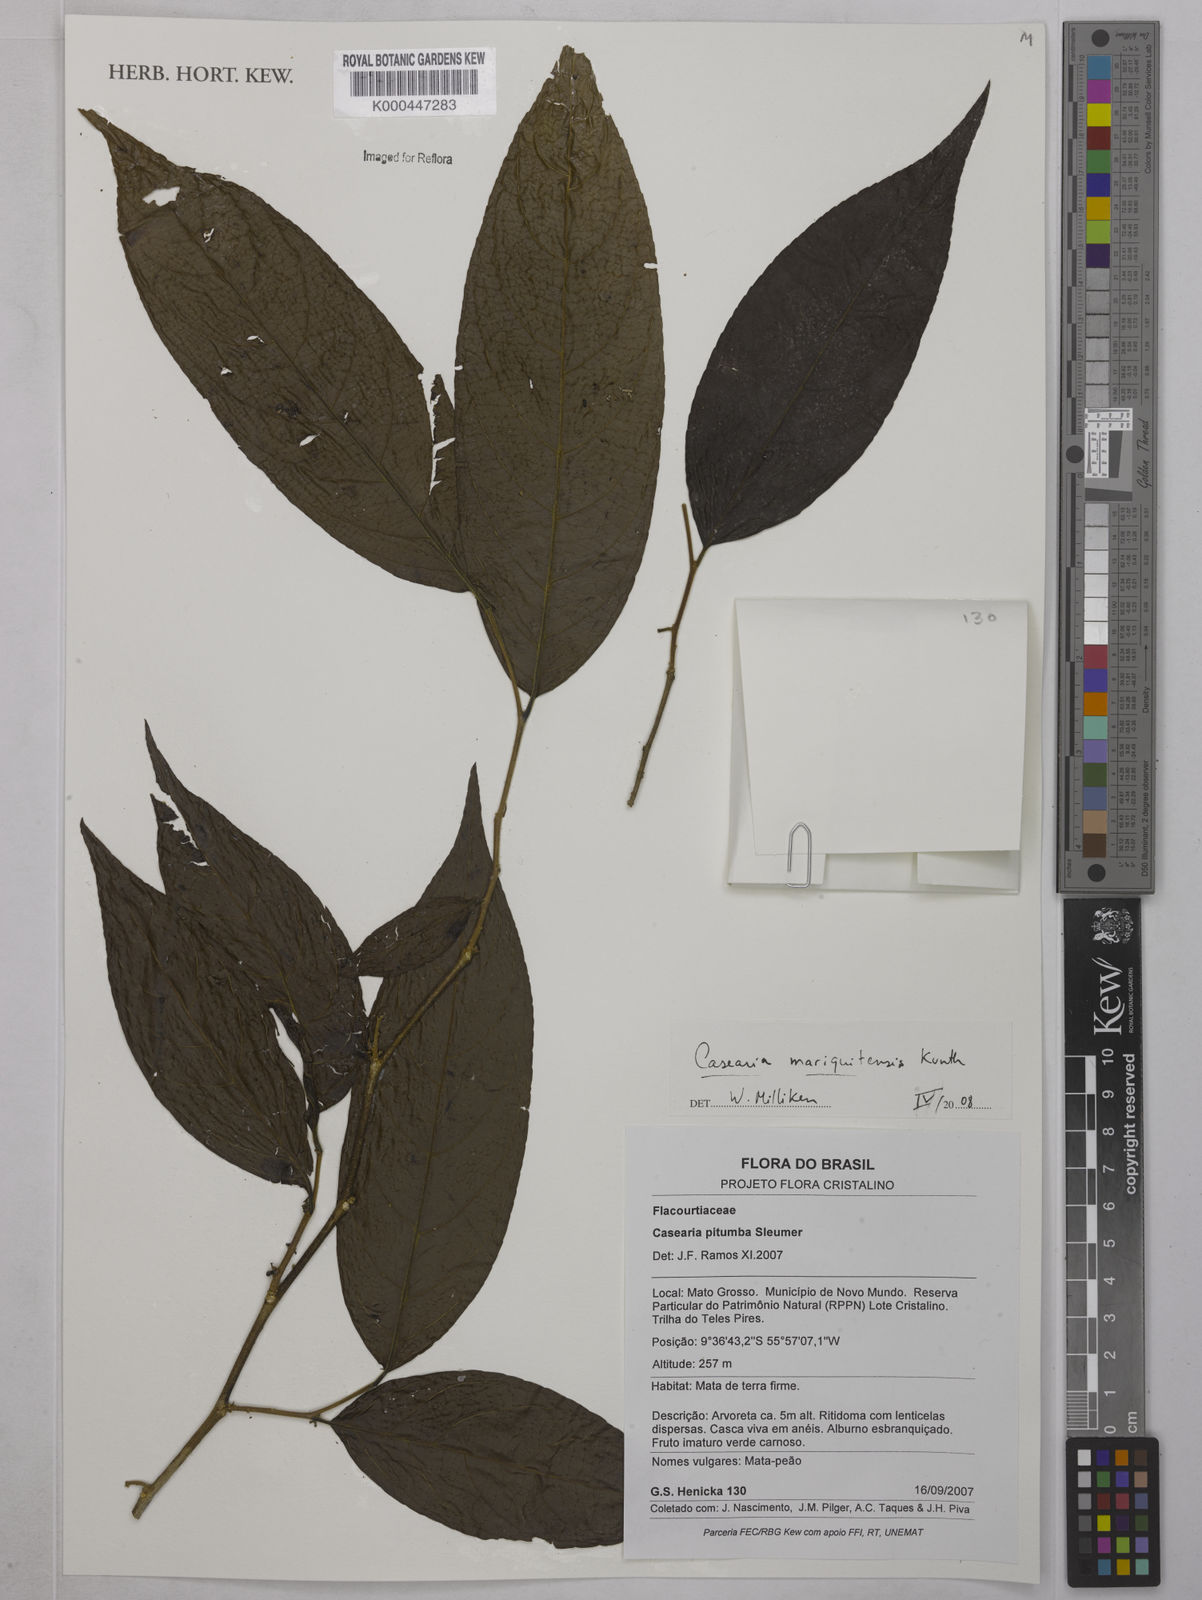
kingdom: Plantae
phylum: Tracheophyta
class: Magnoliopsida
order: Malpighiales
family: Salicaceae
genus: Casearia
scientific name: Casearia mariquitensis
